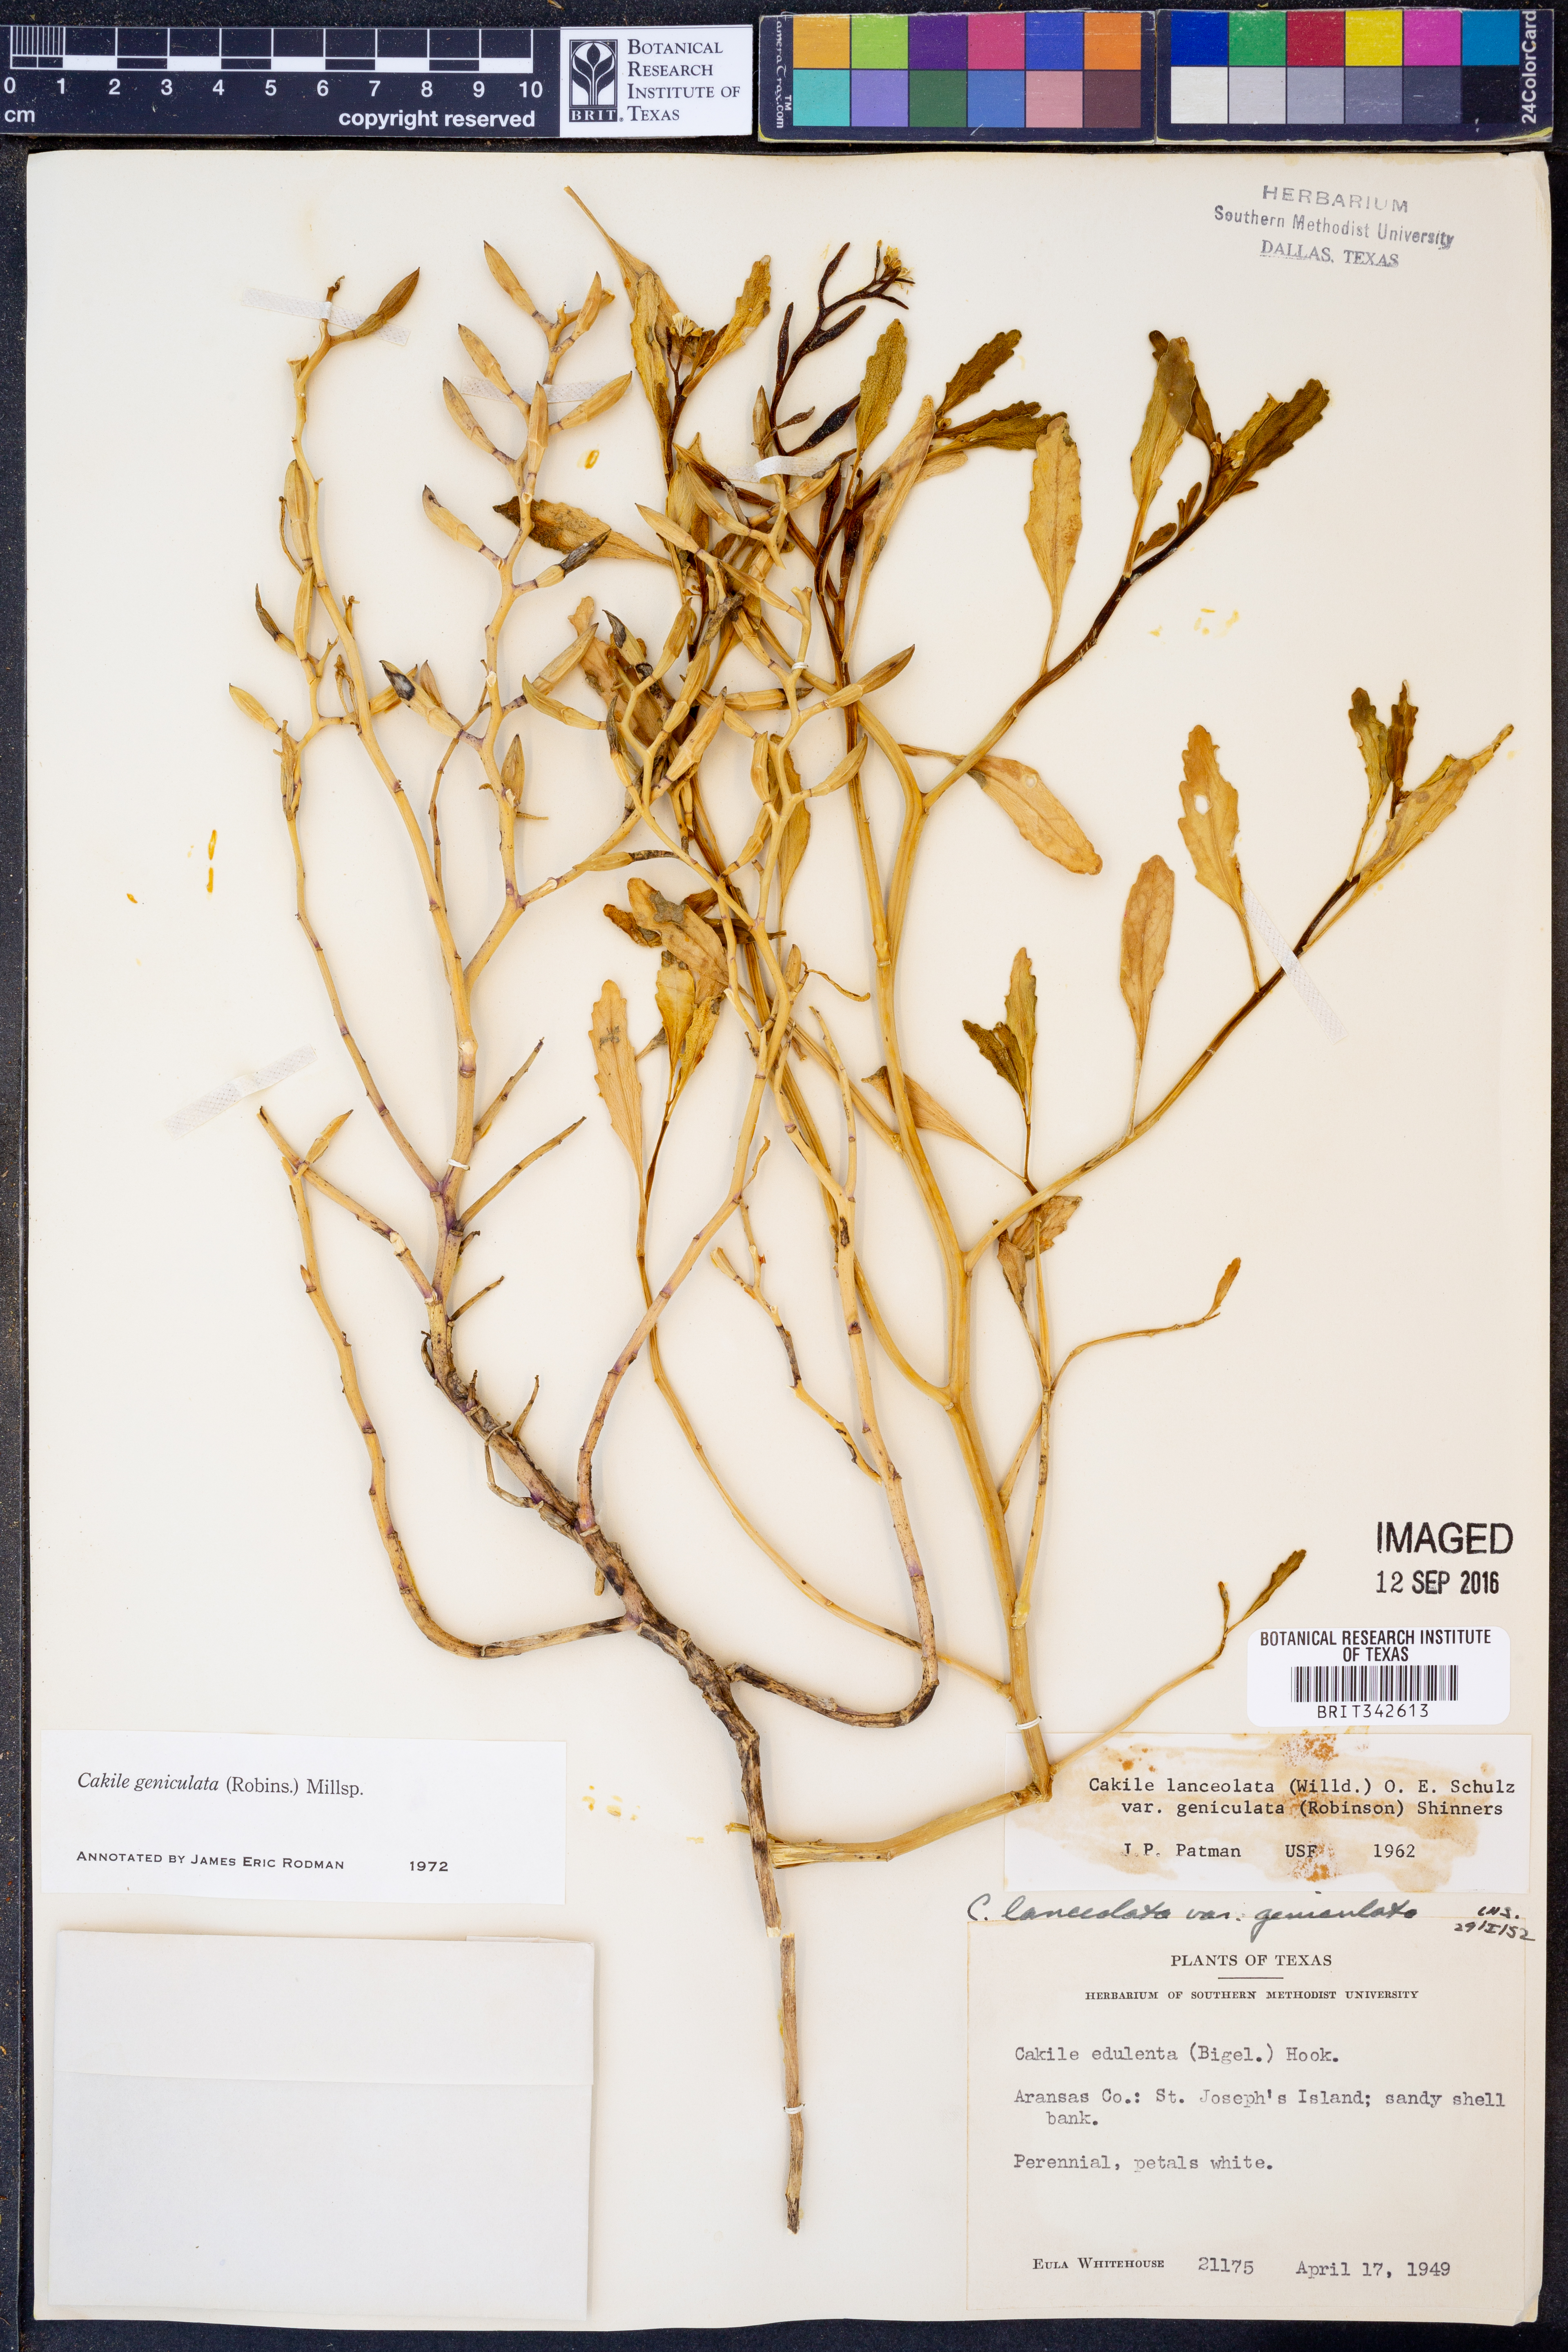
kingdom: Plantae
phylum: Tracheophyta
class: Magnoliopsida
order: Brassicales
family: Brassicaceae
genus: Cakile
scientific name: Cakile geniculata
